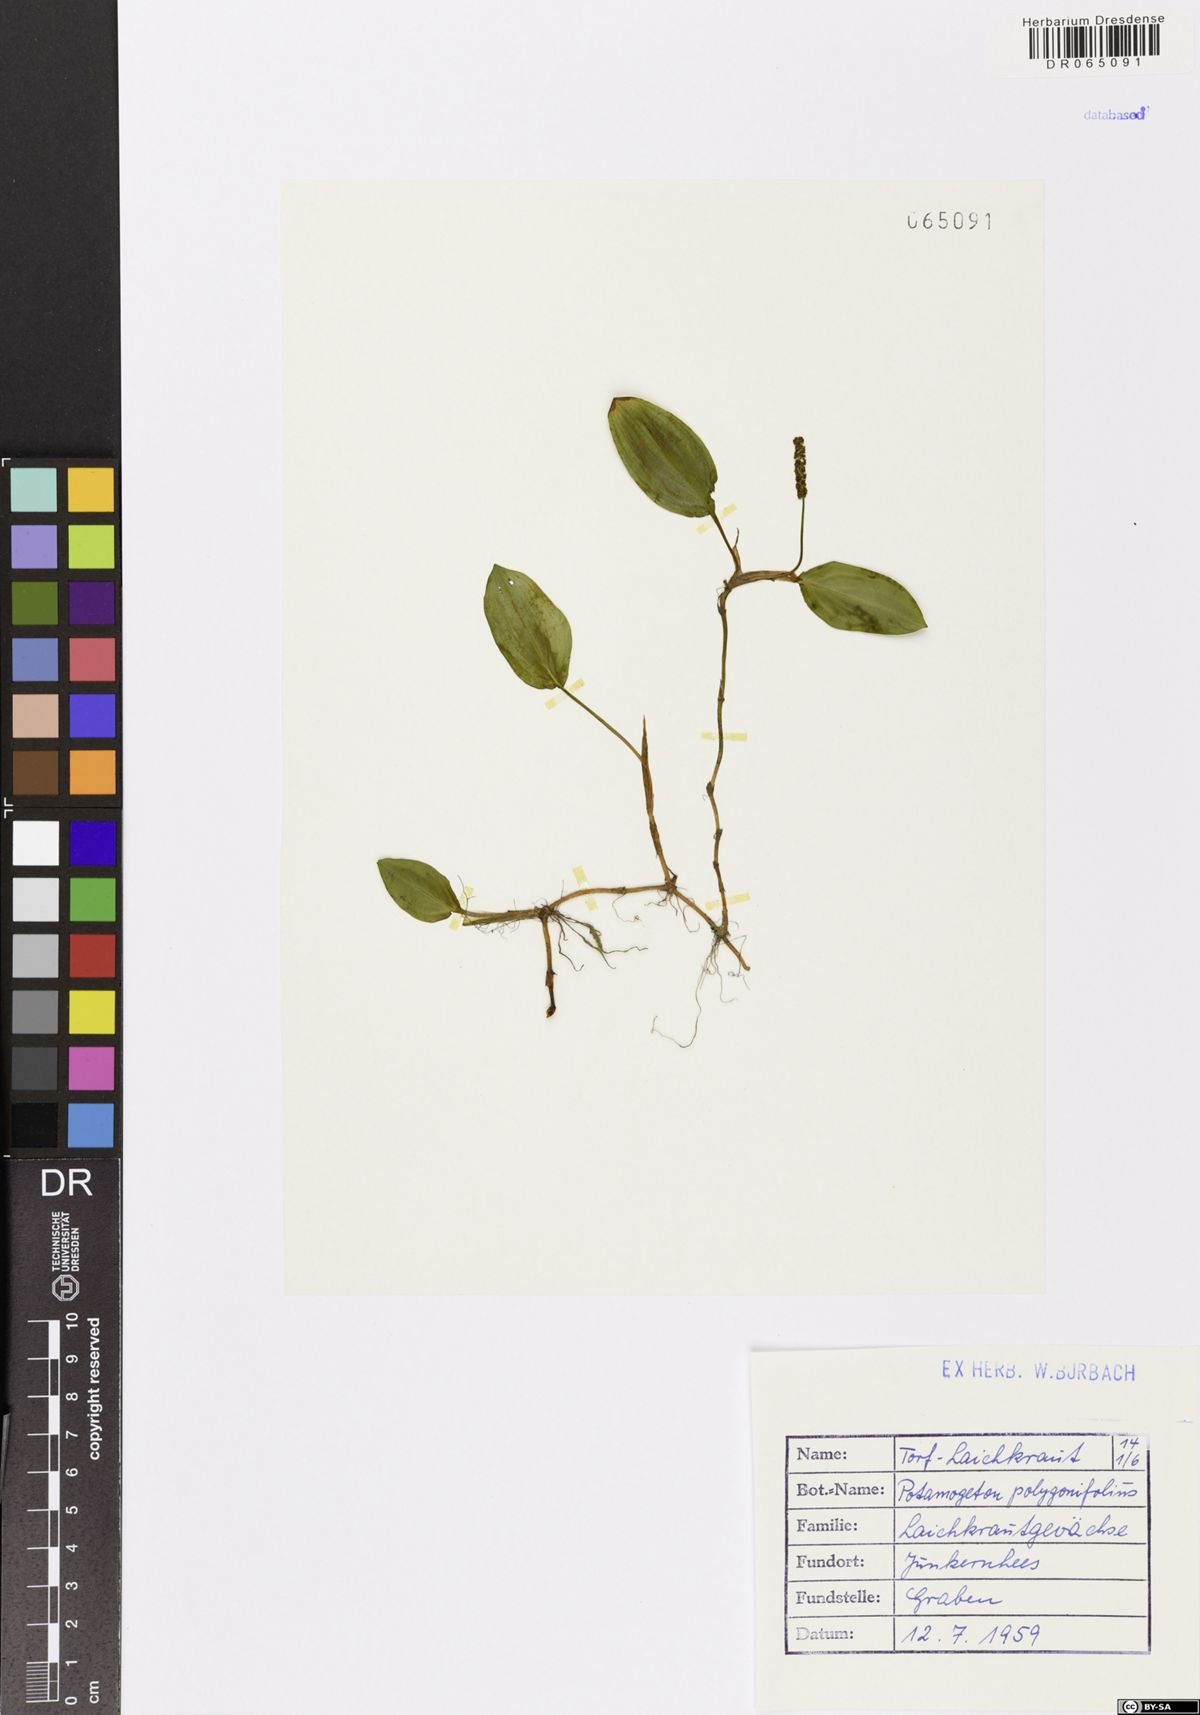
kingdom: Plantae
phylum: Tracheophyta
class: Liliopsida
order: Alismatales
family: Potamogetonaceae
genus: Potamogeton
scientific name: Potamogeton polygonifolius
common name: Bog pondweed
